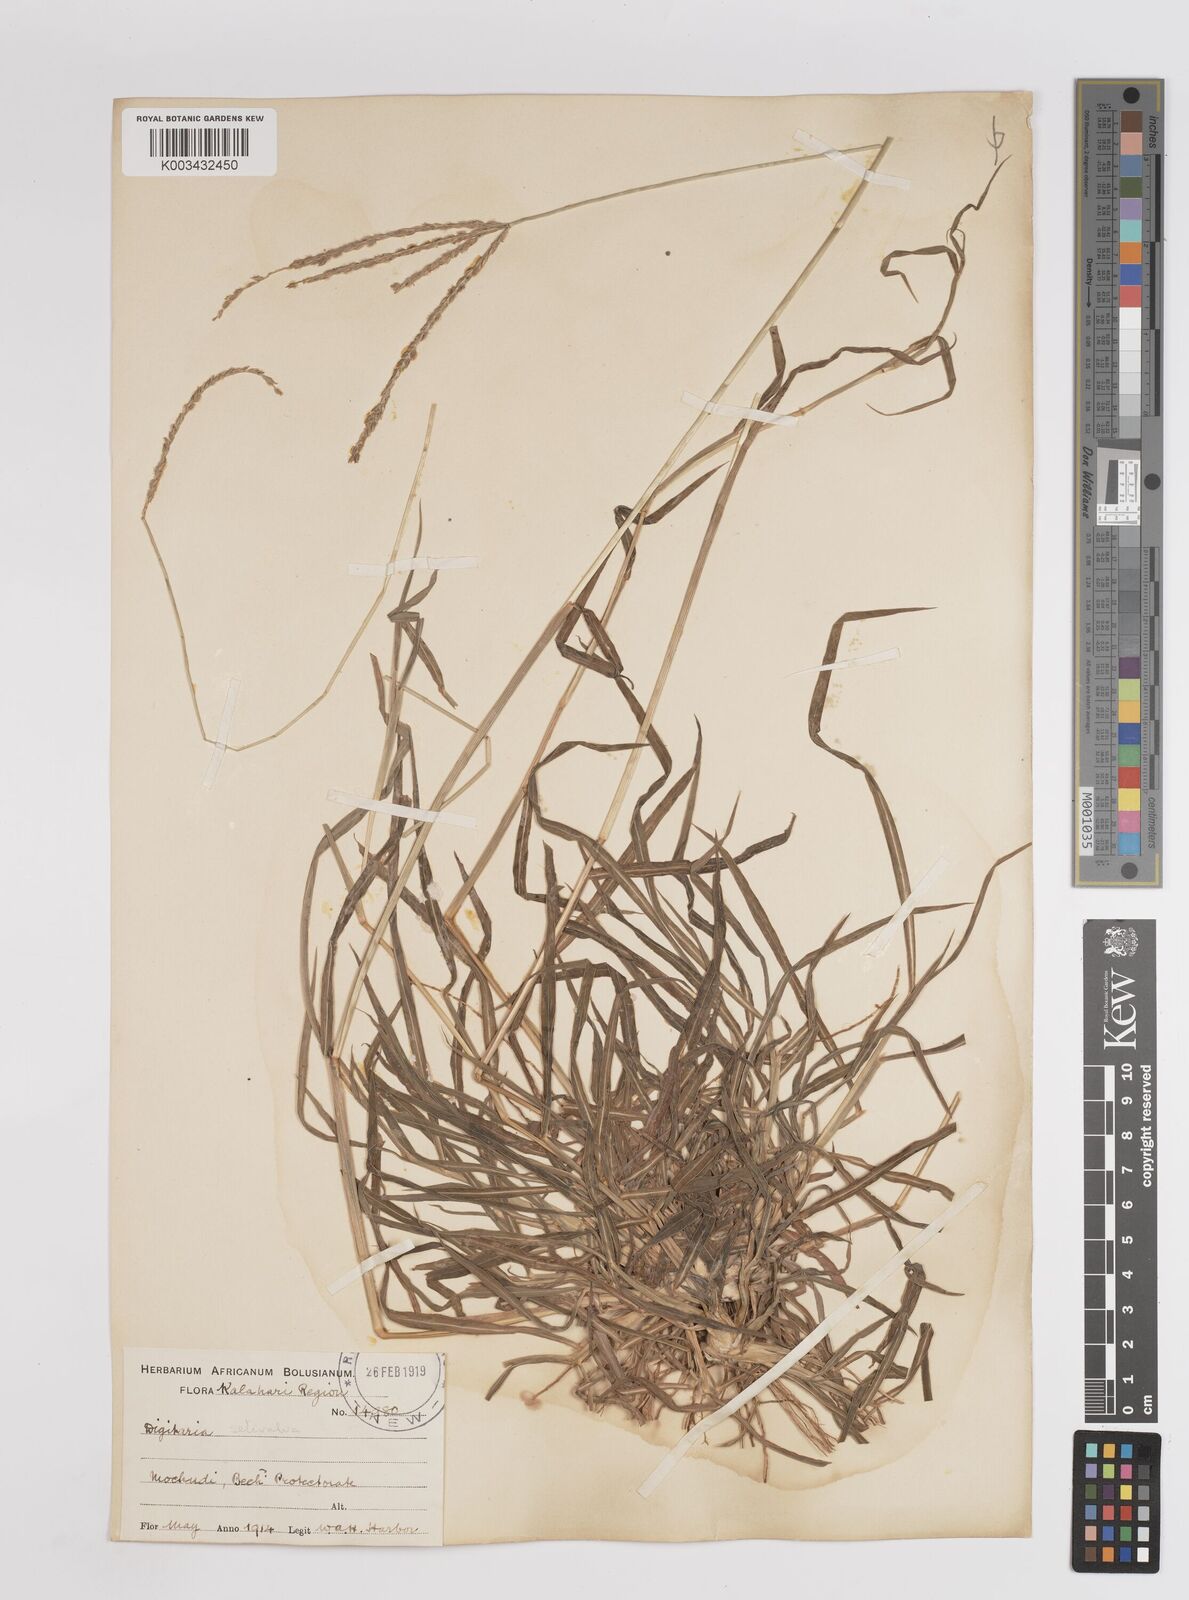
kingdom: Plantae
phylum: Tracheophyta
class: Liliopsida
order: Poales
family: Poaceae
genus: Digitaria
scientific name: Digitaria eriantha
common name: Digitgrass
